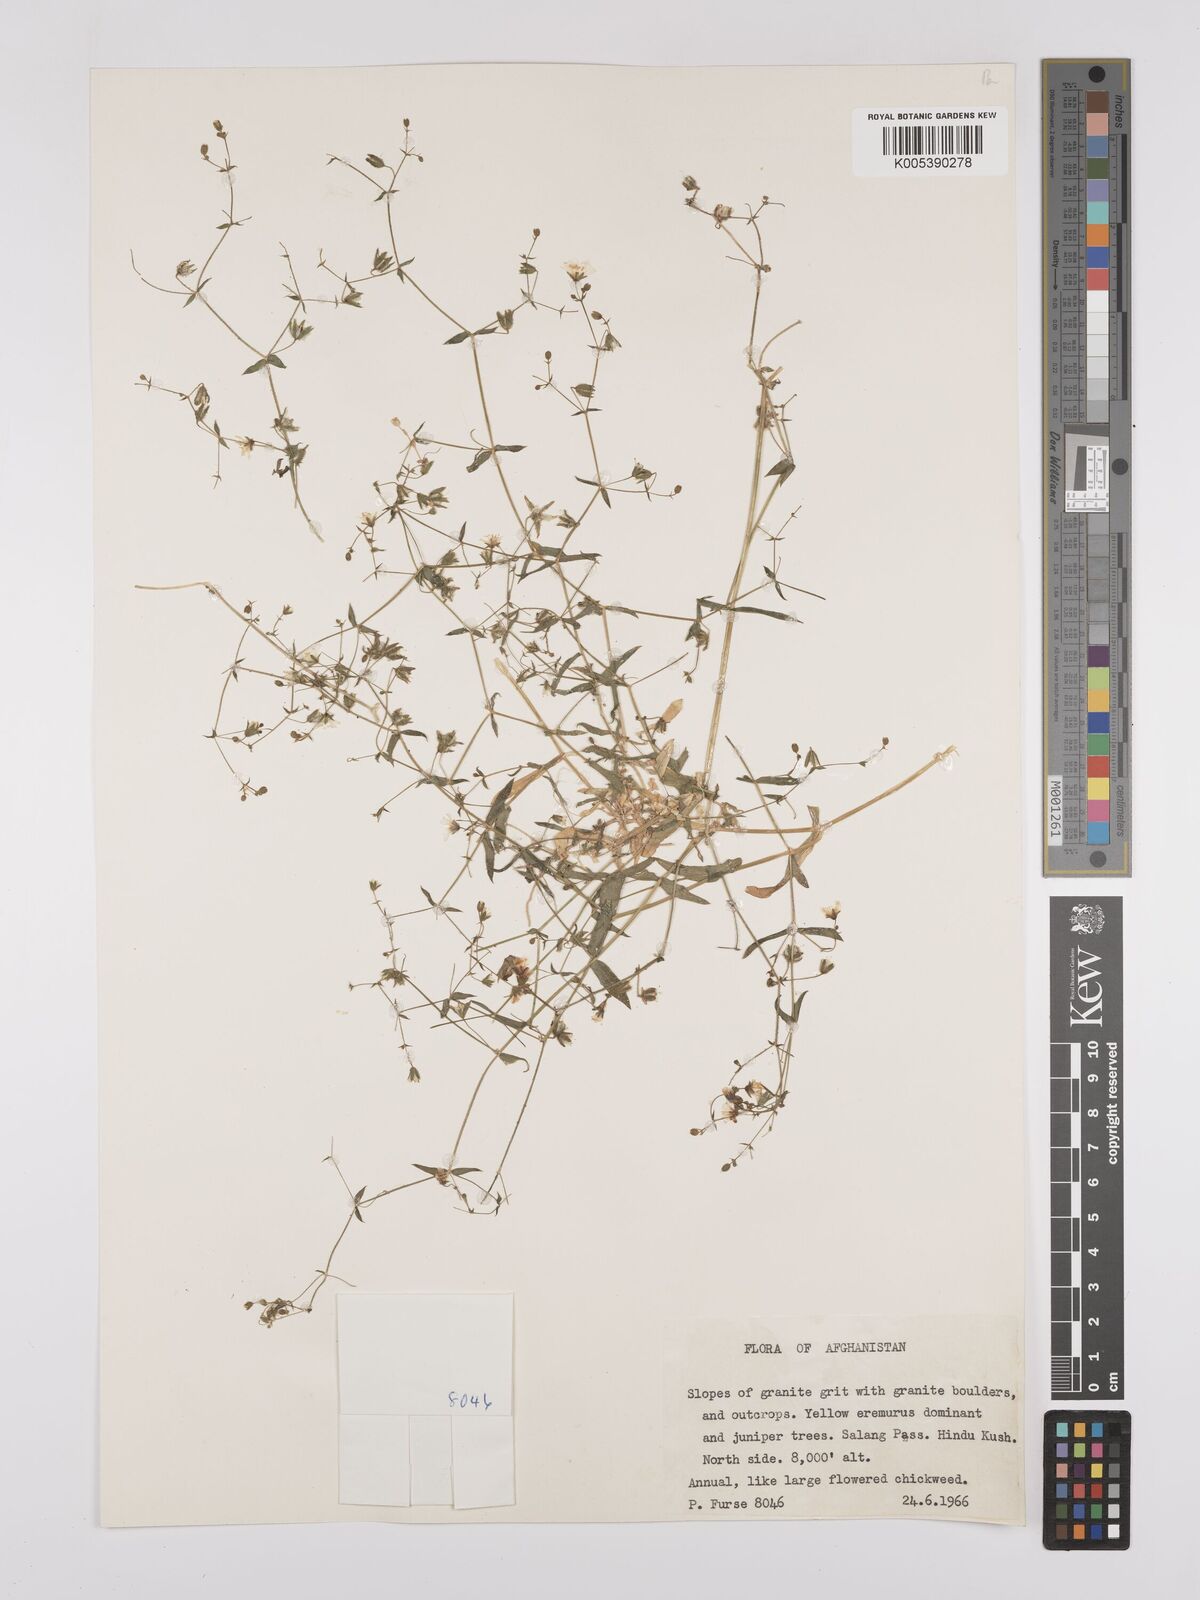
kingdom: Plantae
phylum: Tracheophyta
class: Magnoliopsida
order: Caryophyllales
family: Caryophyllaceae
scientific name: Caryophyllaceae
